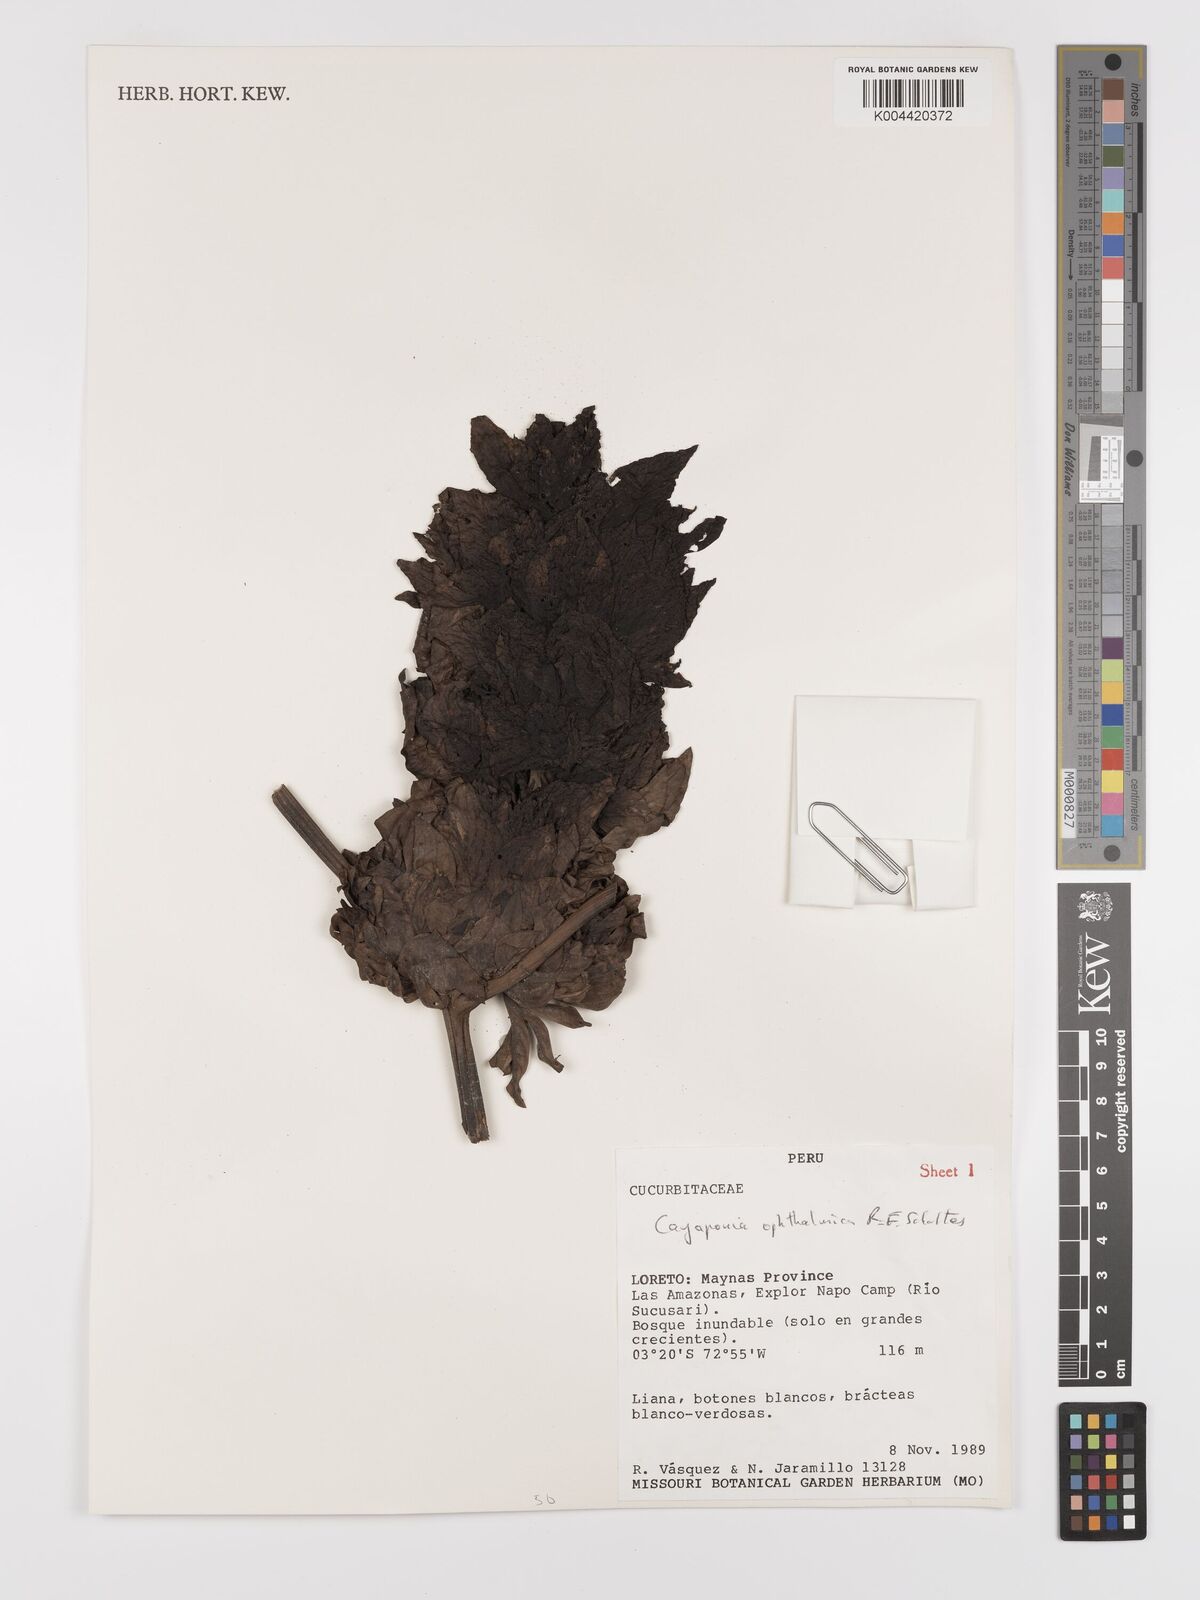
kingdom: Plantae
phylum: Tracheophyta
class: Magnoliopsida
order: Cucurbitales
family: Cucurbitaceae
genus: Cayaponia
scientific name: Cayaponia ophthalmica
